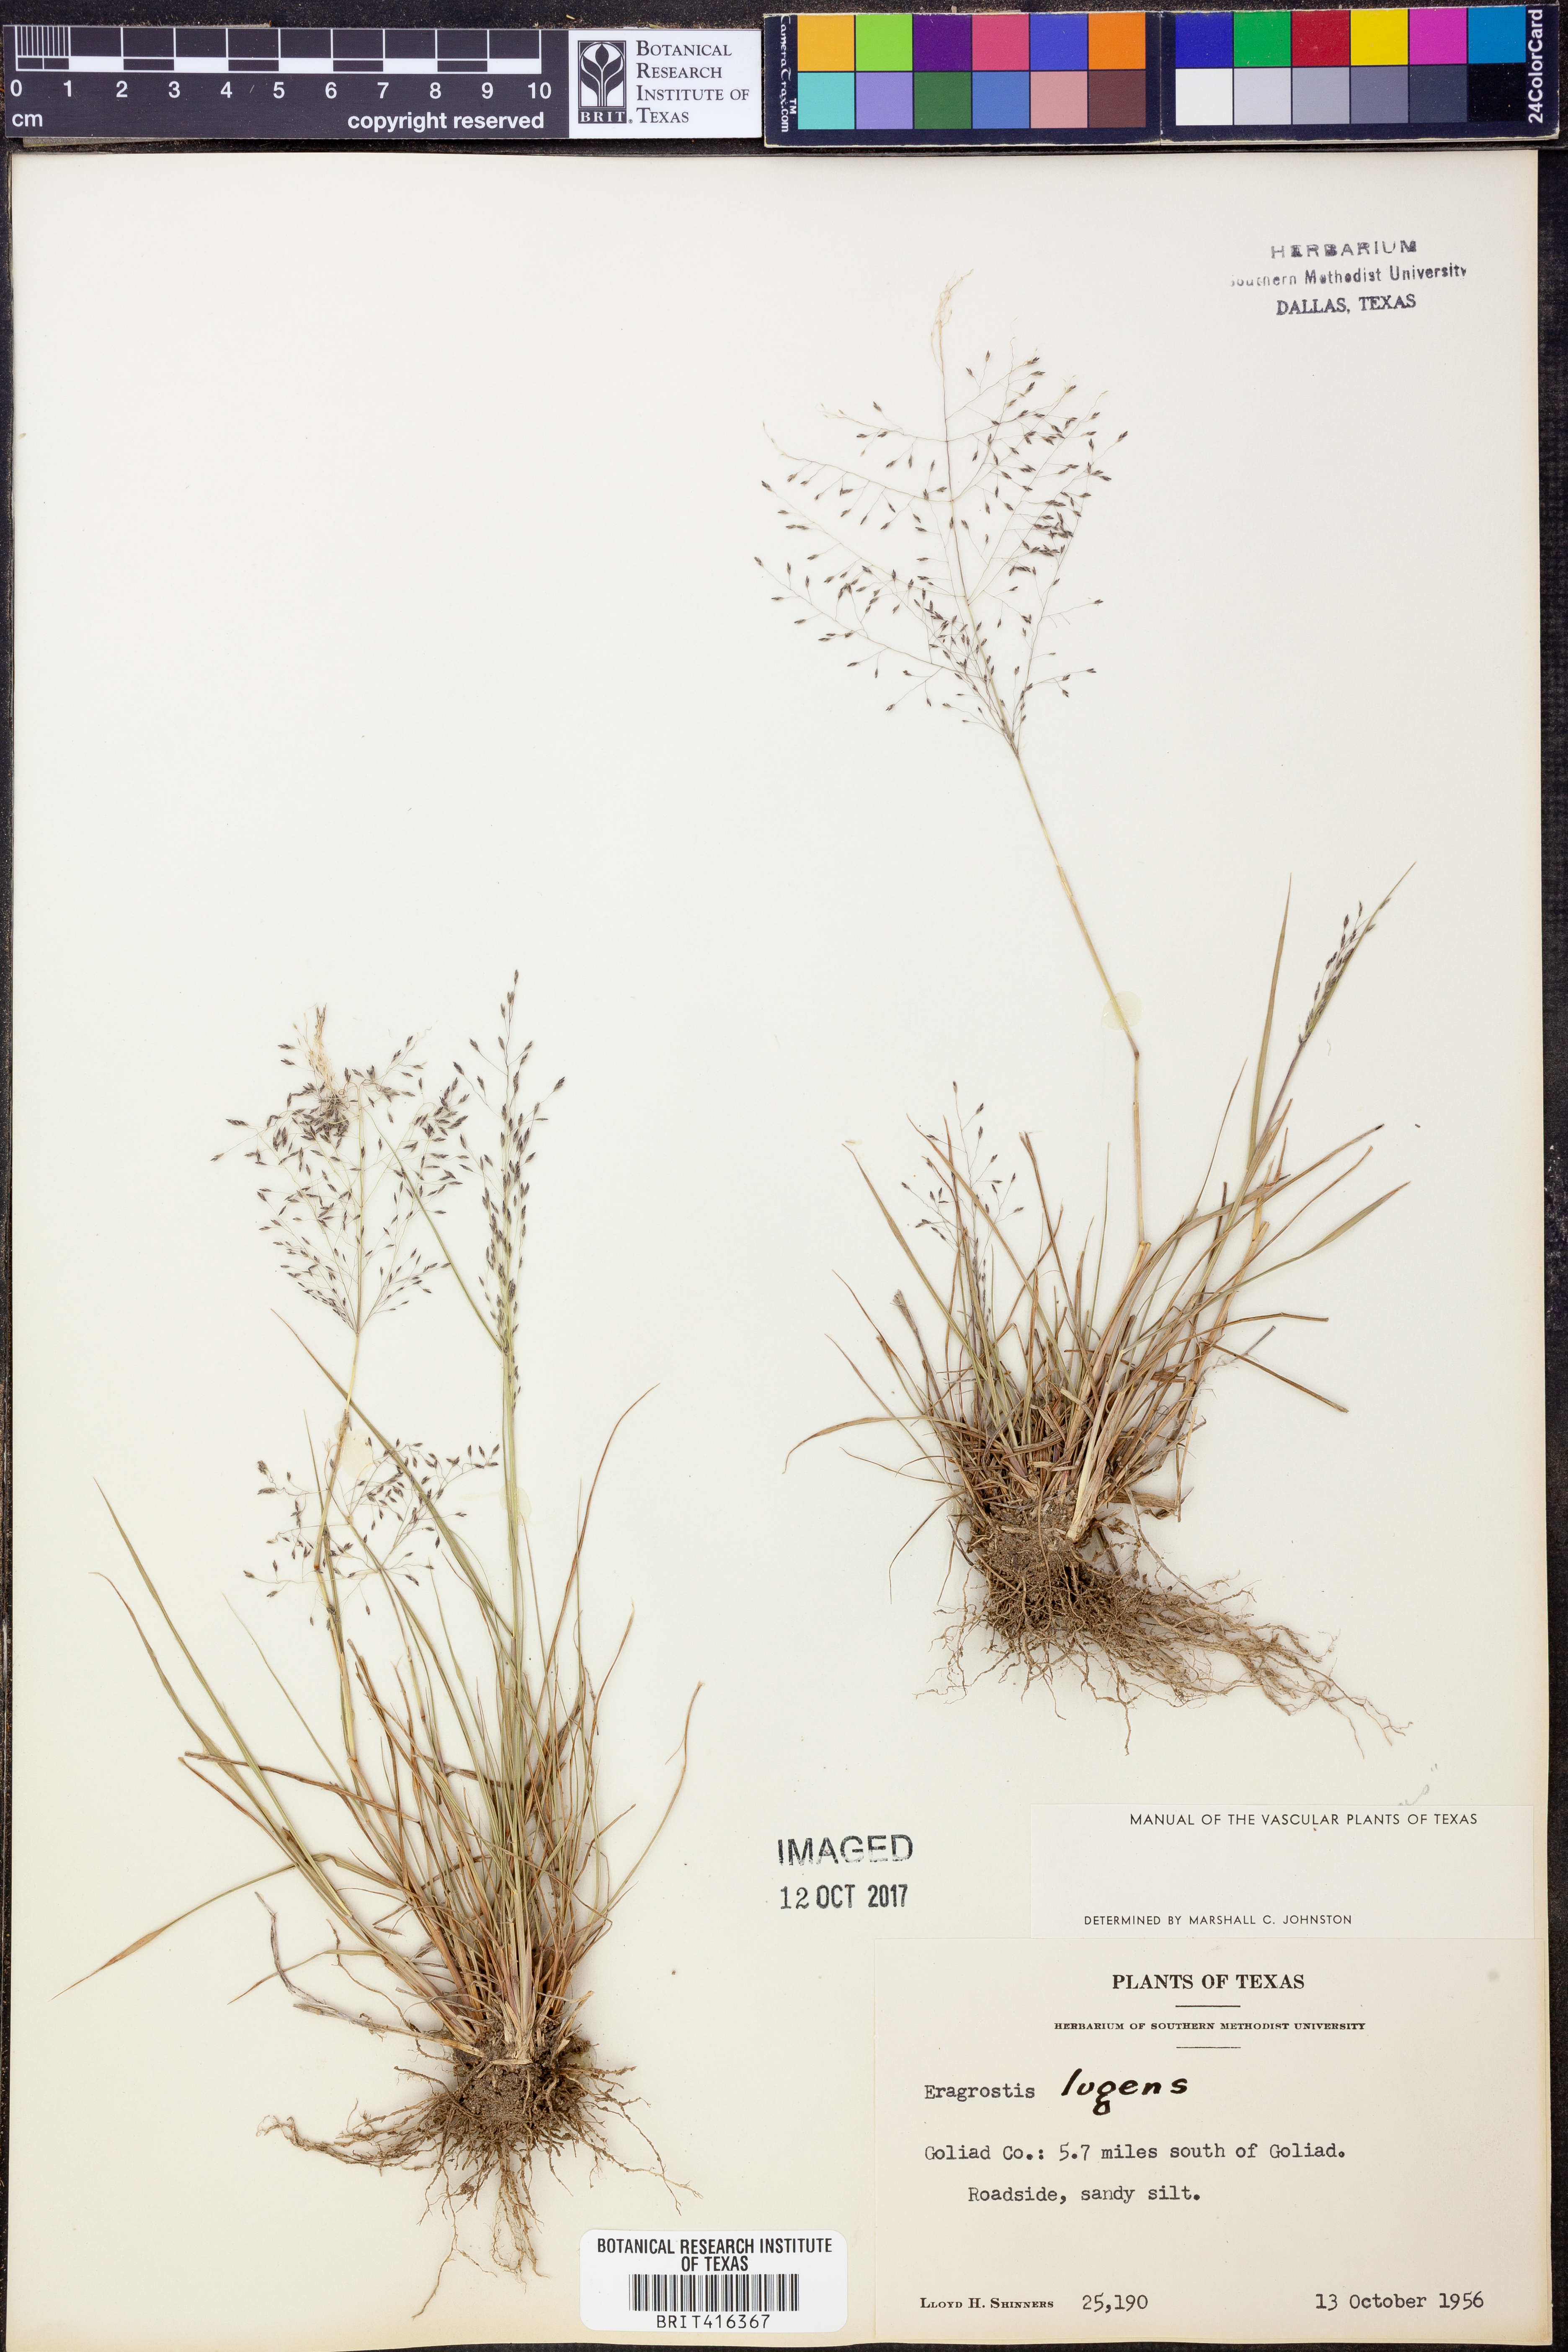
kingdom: Plantae
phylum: Tracheophyta
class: Liliopsida
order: Poales
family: Poaceae
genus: Eragrostis
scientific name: Eragrostis capillaris
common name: Hair-like lovegrass
